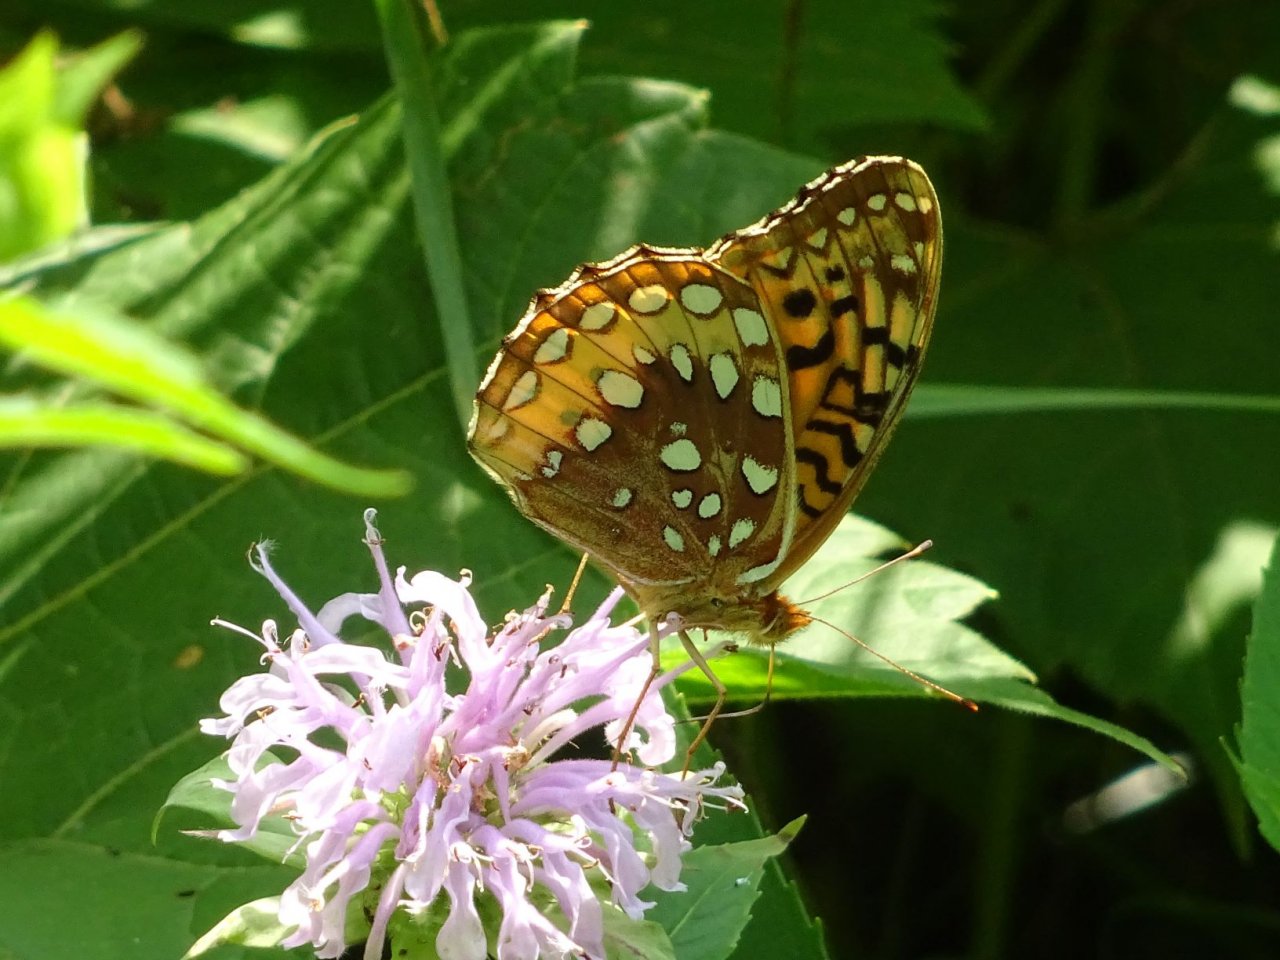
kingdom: Animalia
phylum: Arthropoda
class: Insecta
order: Lepidoptera
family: Nymphalidae
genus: Speyeria
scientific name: Speyeria cybele
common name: Great Spangled Fritillary
